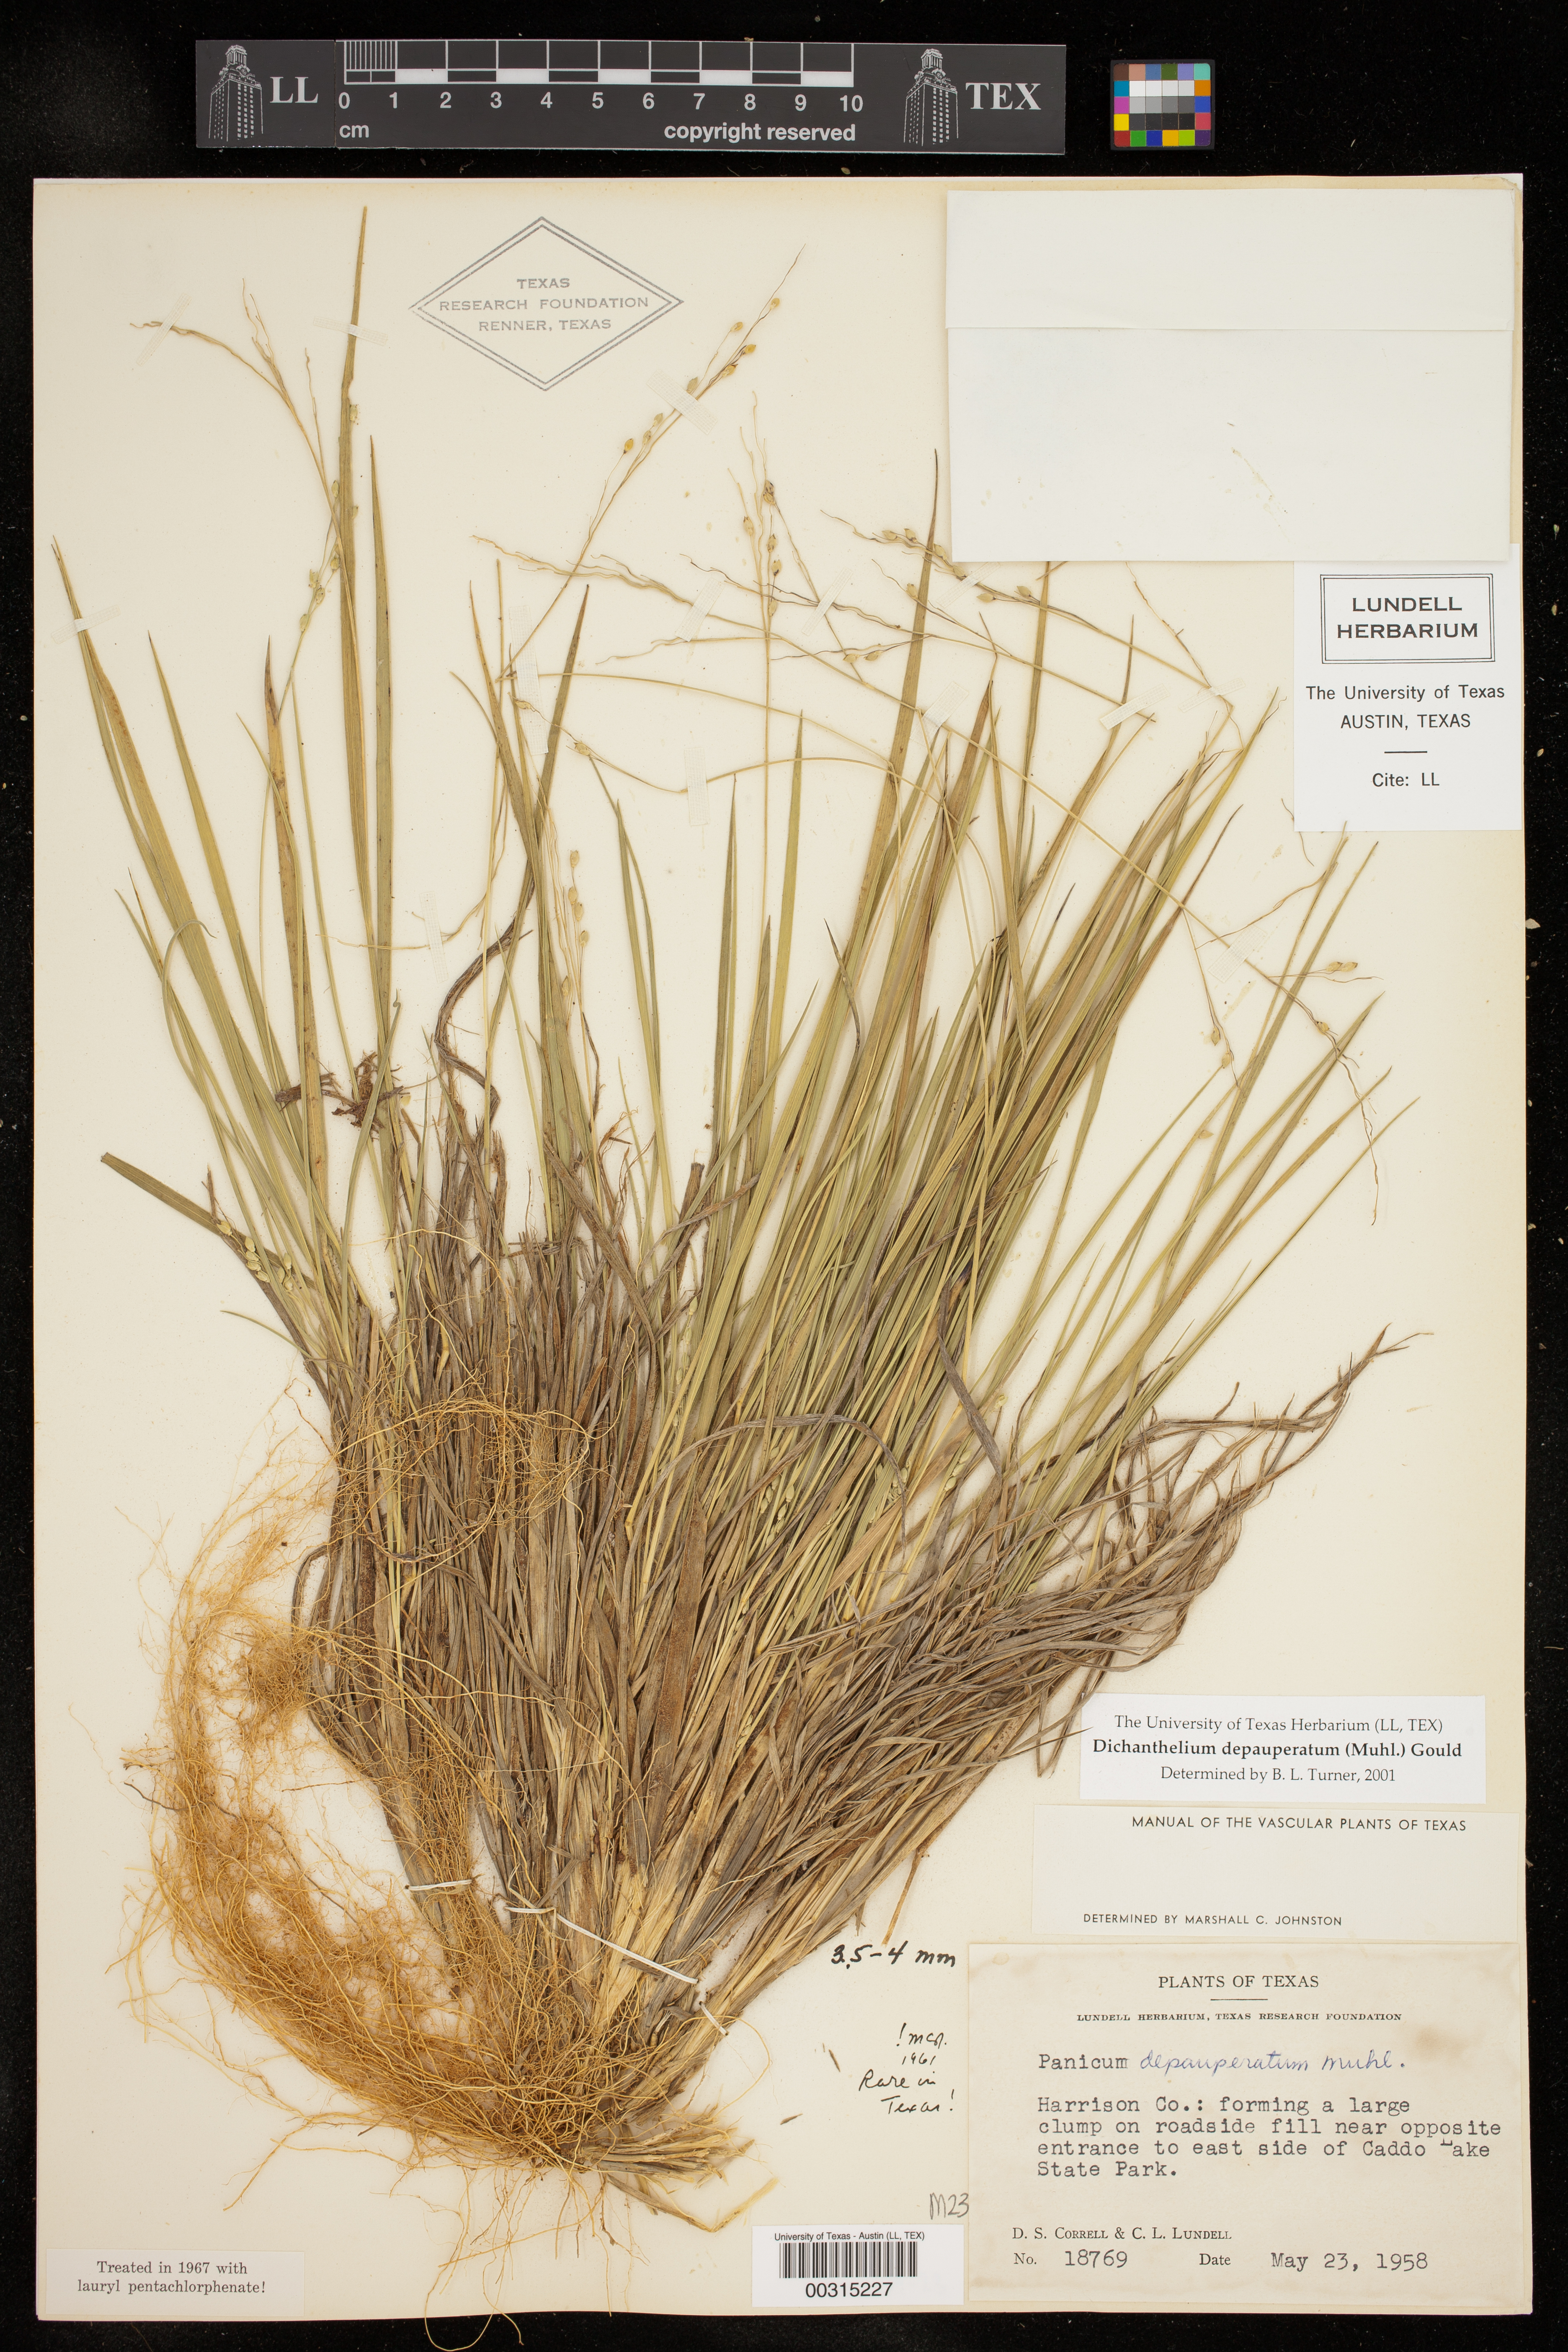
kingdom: Plantae
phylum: Tracheophyta
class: Liliopsida
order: Poales
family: Poaceae
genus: Dichanthelium
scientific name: Dichanthelium depauperatum
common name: Depauperate panicgrass
